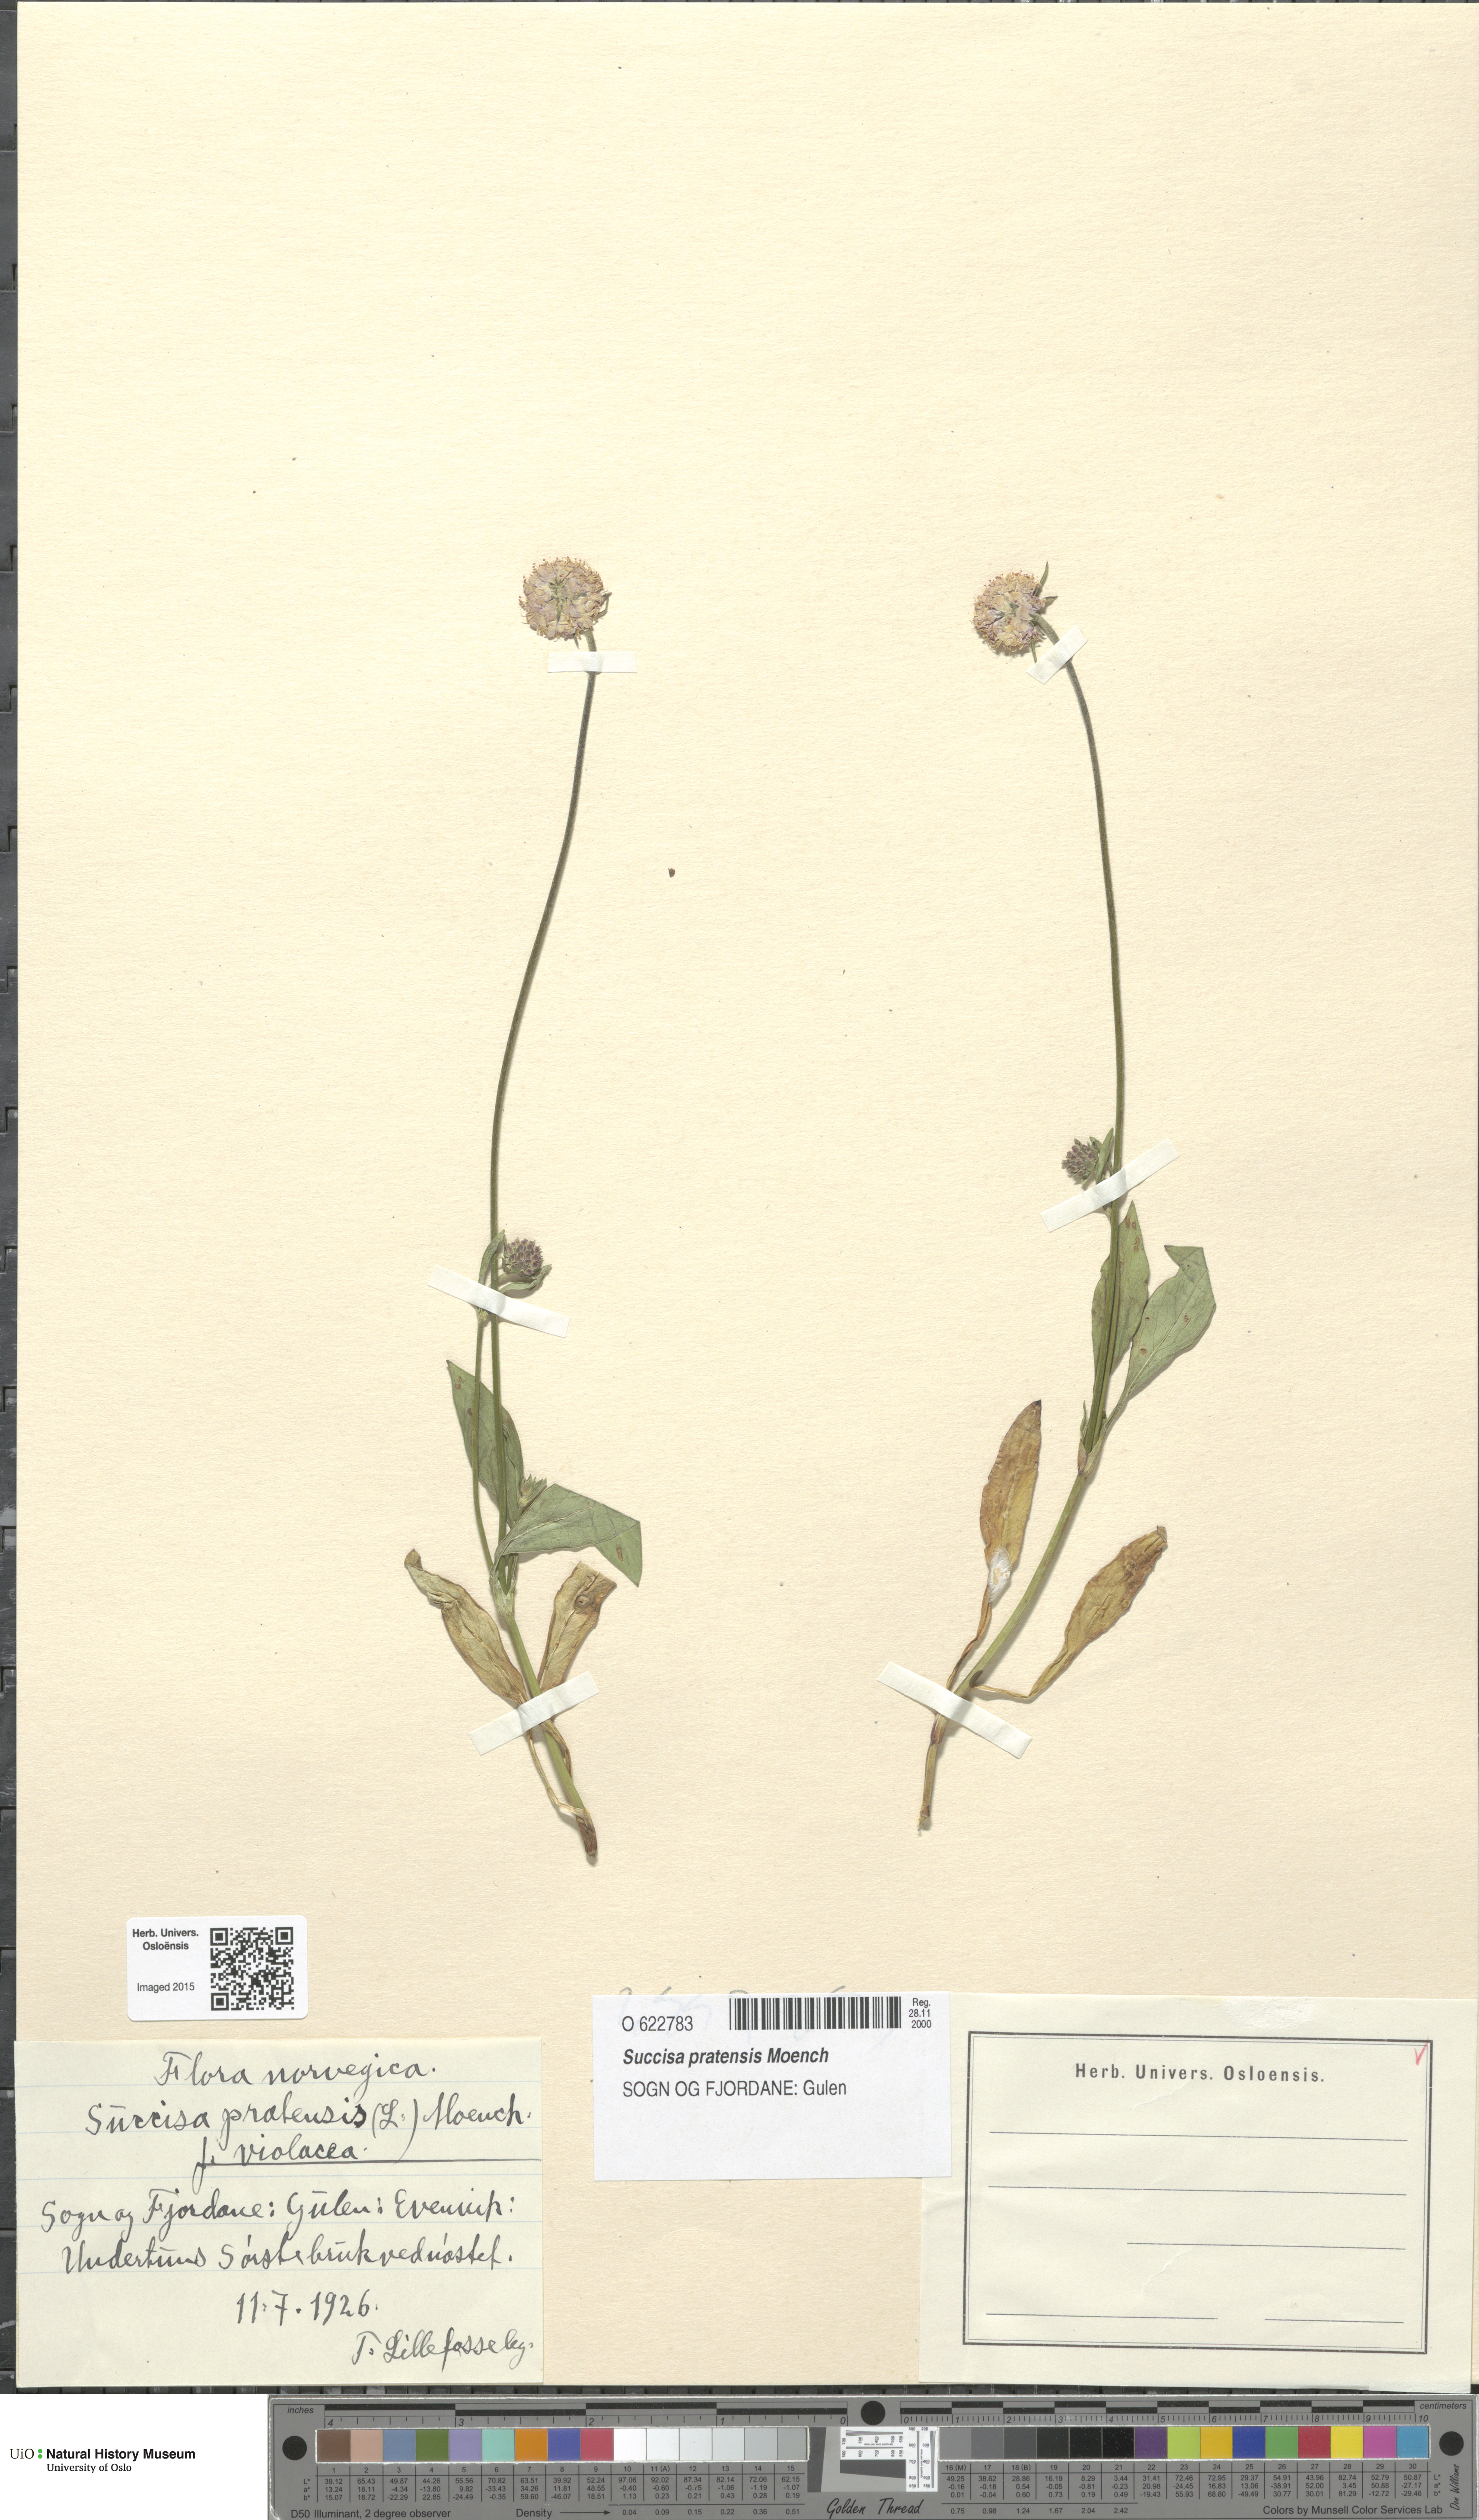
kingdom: Plantae
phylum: Tracheophyta
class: Magnoliopsida
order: Dipsacales
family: Caprifoliaceae
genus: Succisa
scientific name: Succisa pratensis
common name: Devil's-bit
